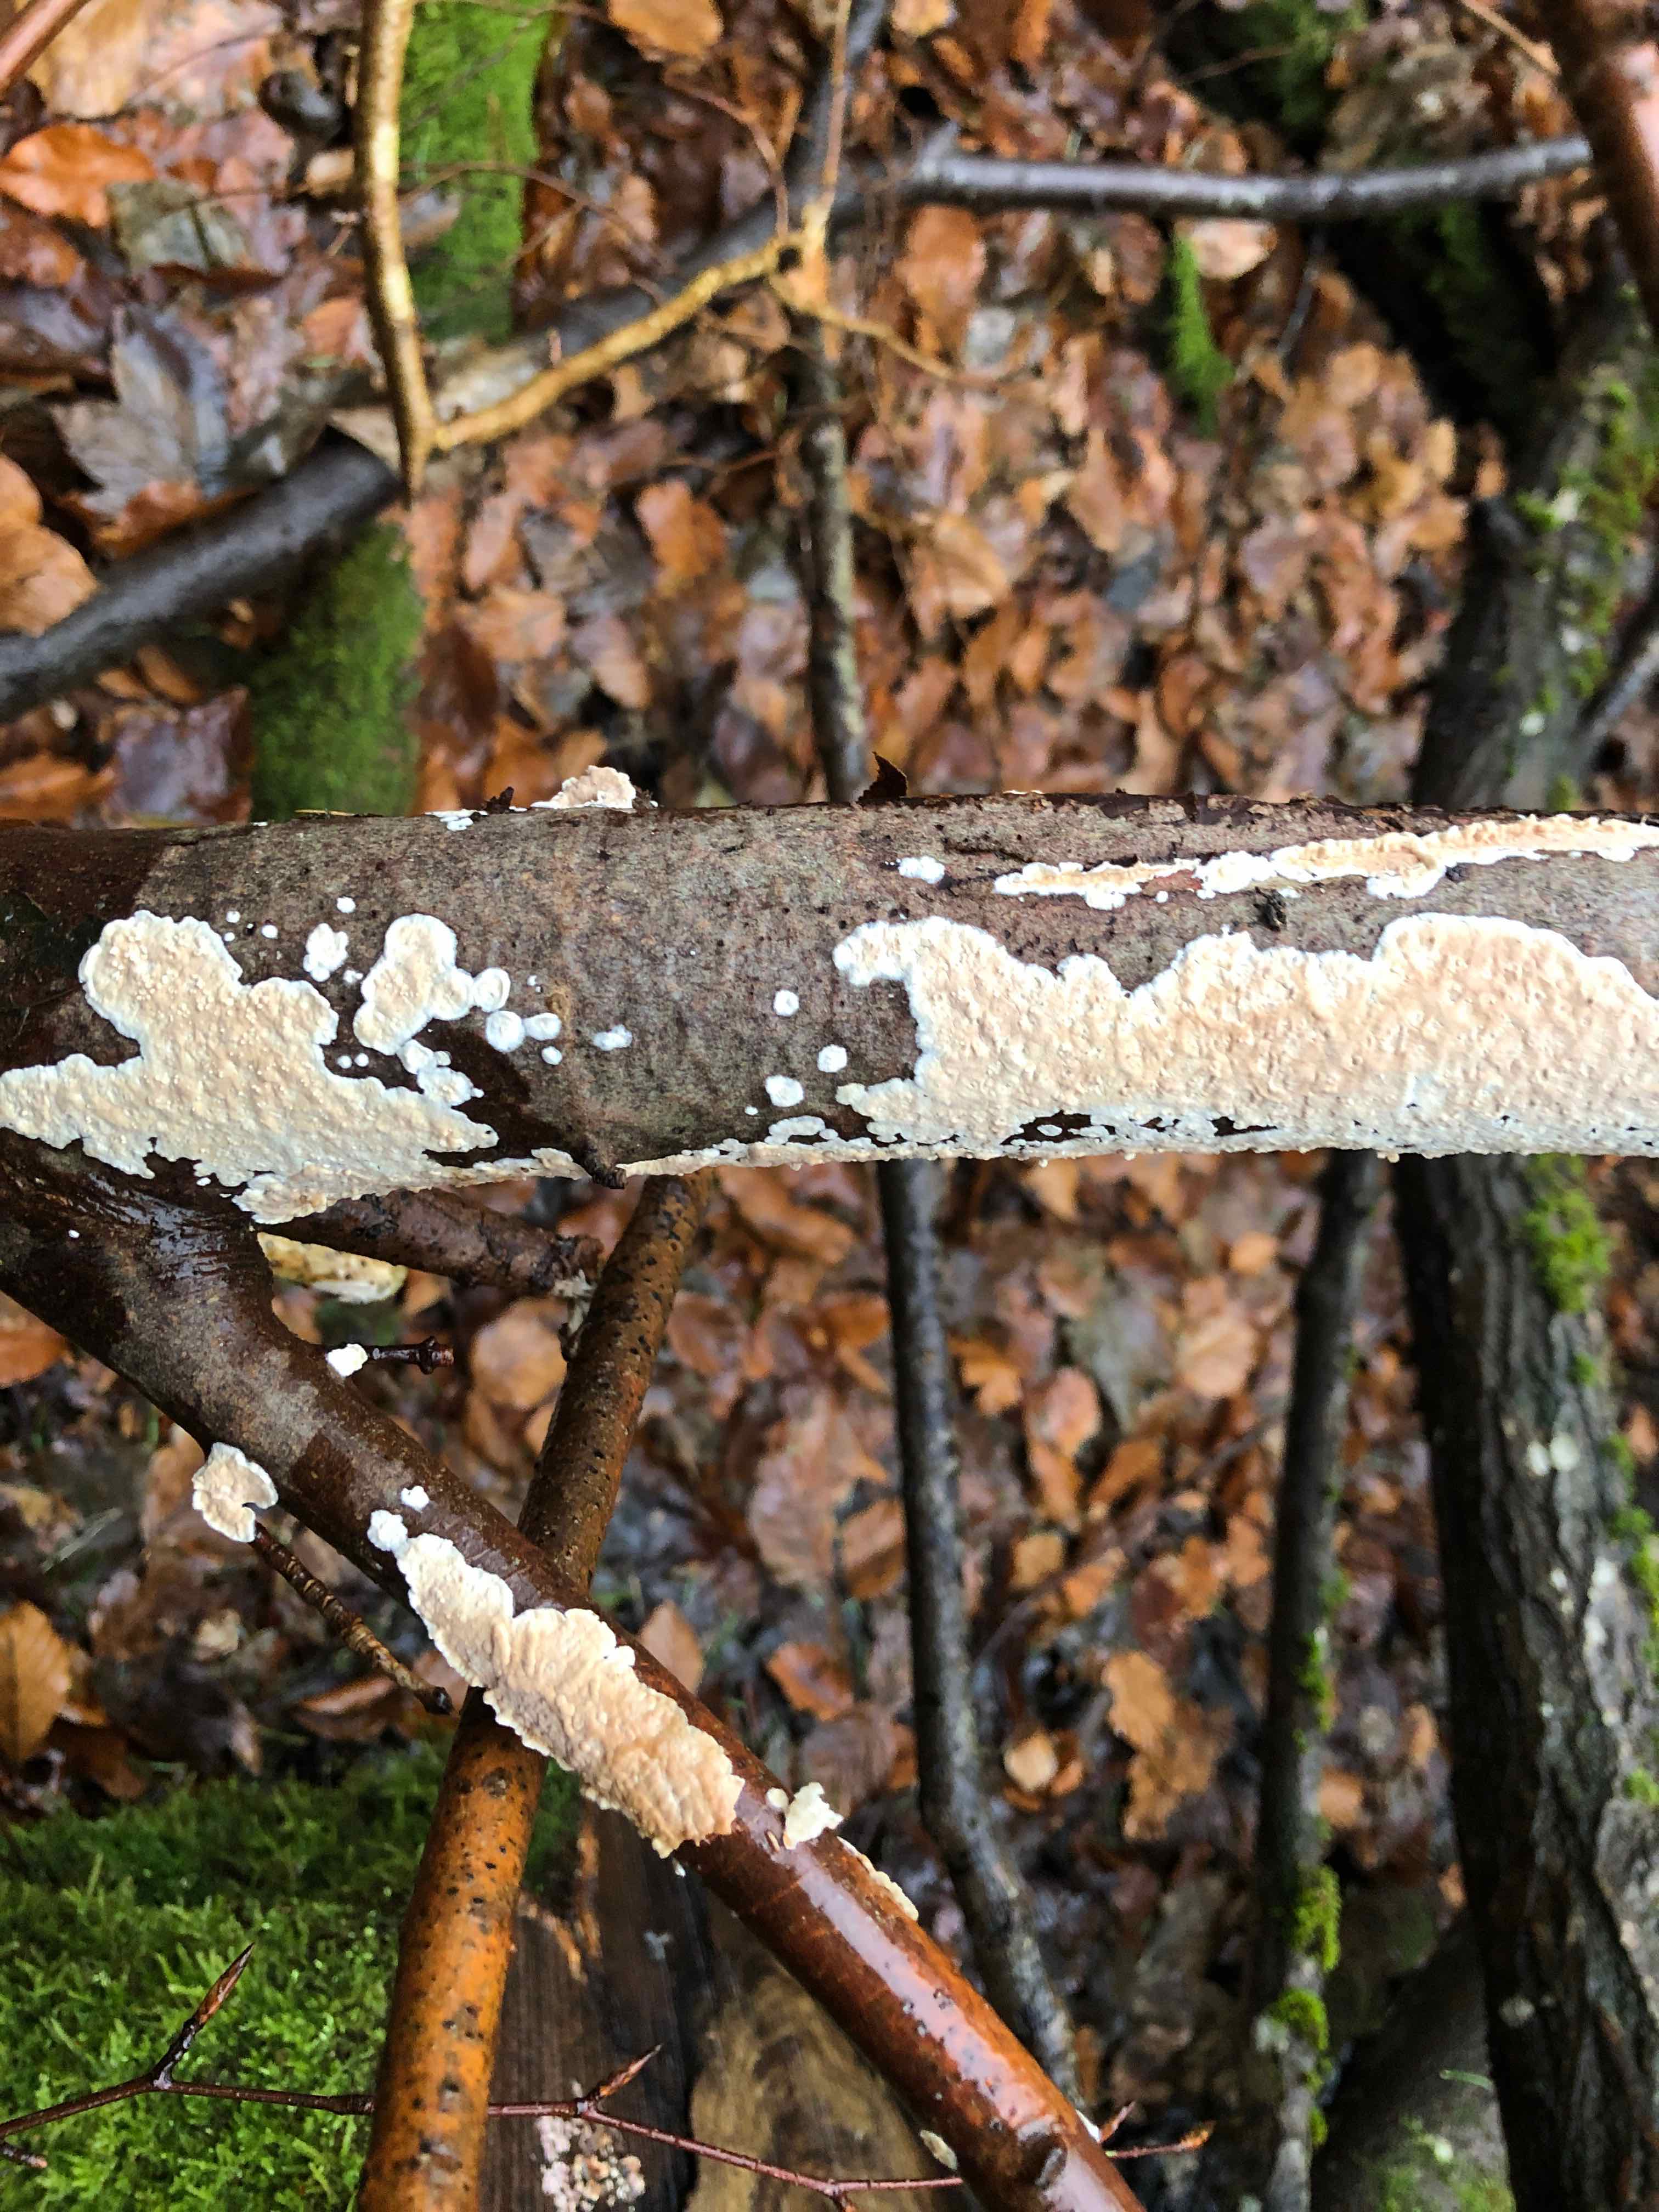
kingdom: Fungi
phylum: Basidiomycota
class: Agaricomycetes
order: Agaricales
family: Physalacriaceae
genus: Cylindrobasidium
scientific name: Cylindrobasidium evolvens
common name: sprækkehinde
